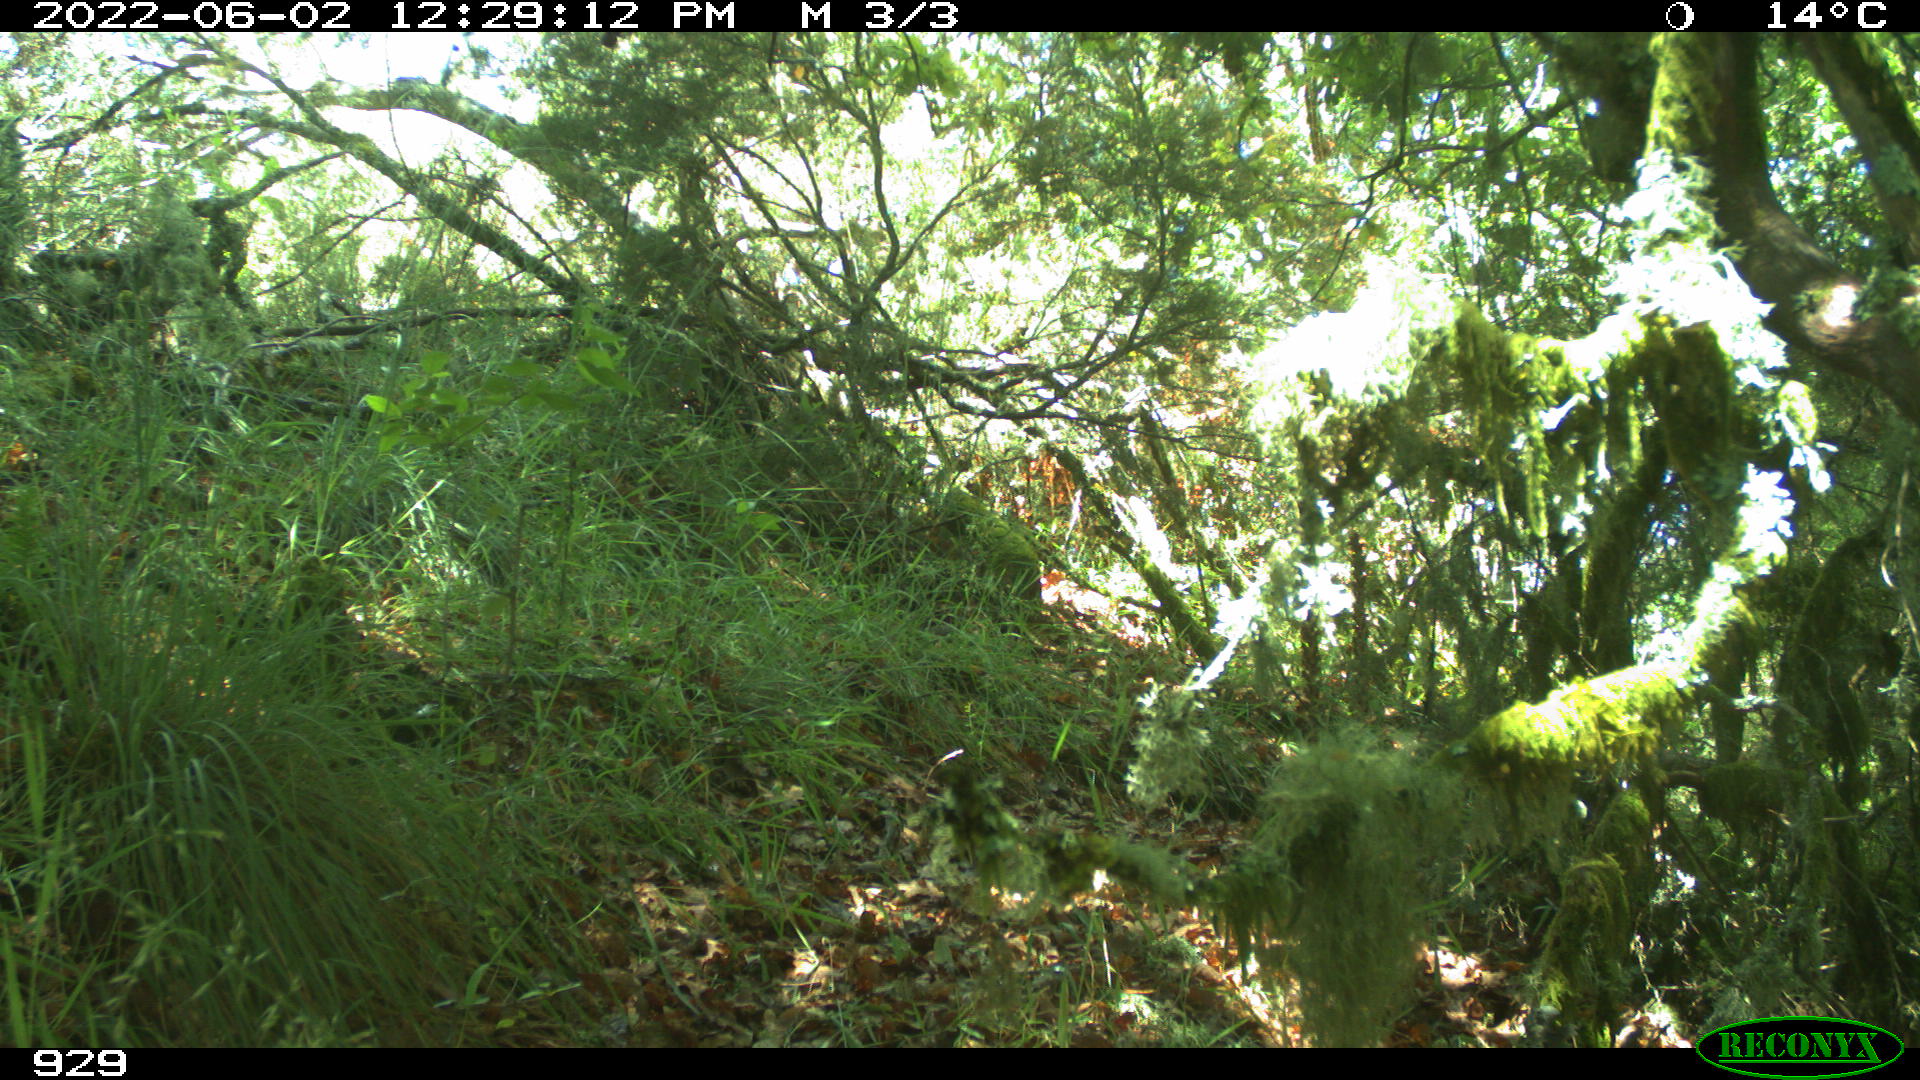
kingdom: Animalia
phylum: Chordata
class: Mammalia
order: Carnivora
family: Canidae
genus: Vulpes
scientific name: Vulpes vulpes
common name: Red fox
